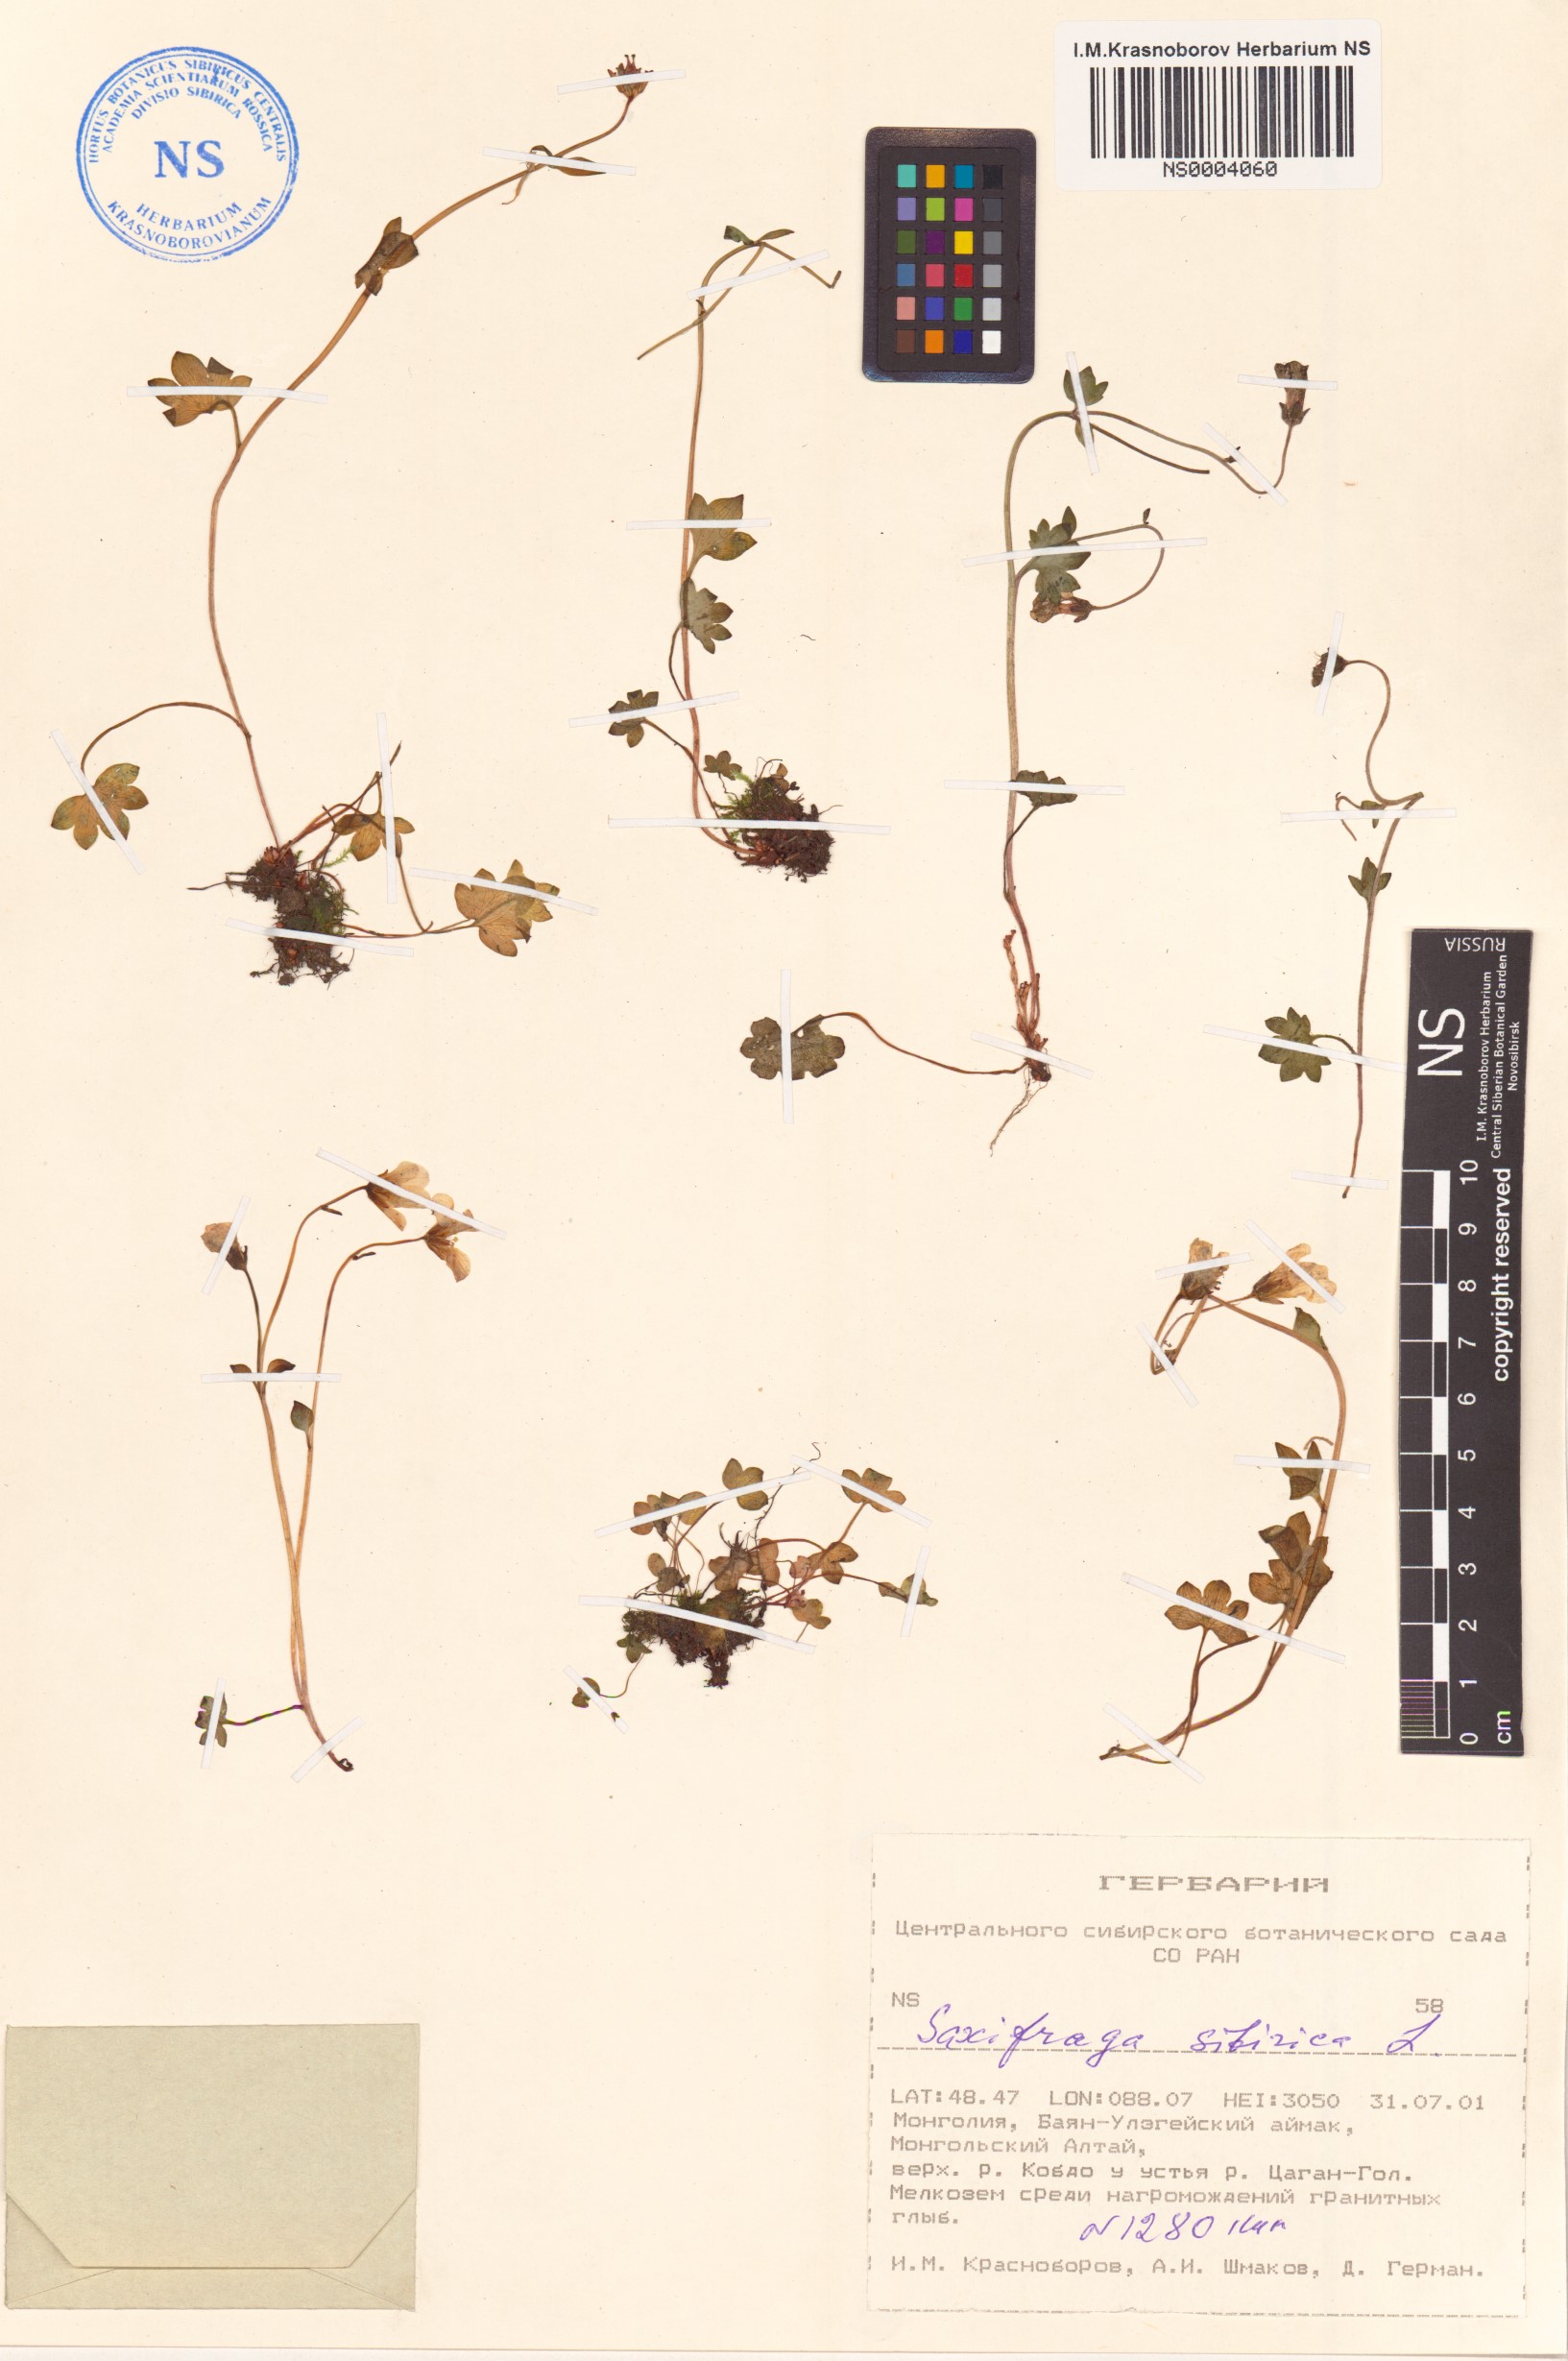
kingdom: Plantae
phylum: Tracheophyta
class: Magnoliopsida
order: Saxifragales
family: Saxifragaceae
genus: Saxifraga
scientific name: Saxifraga sibirica
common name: Siberian saxifrage
